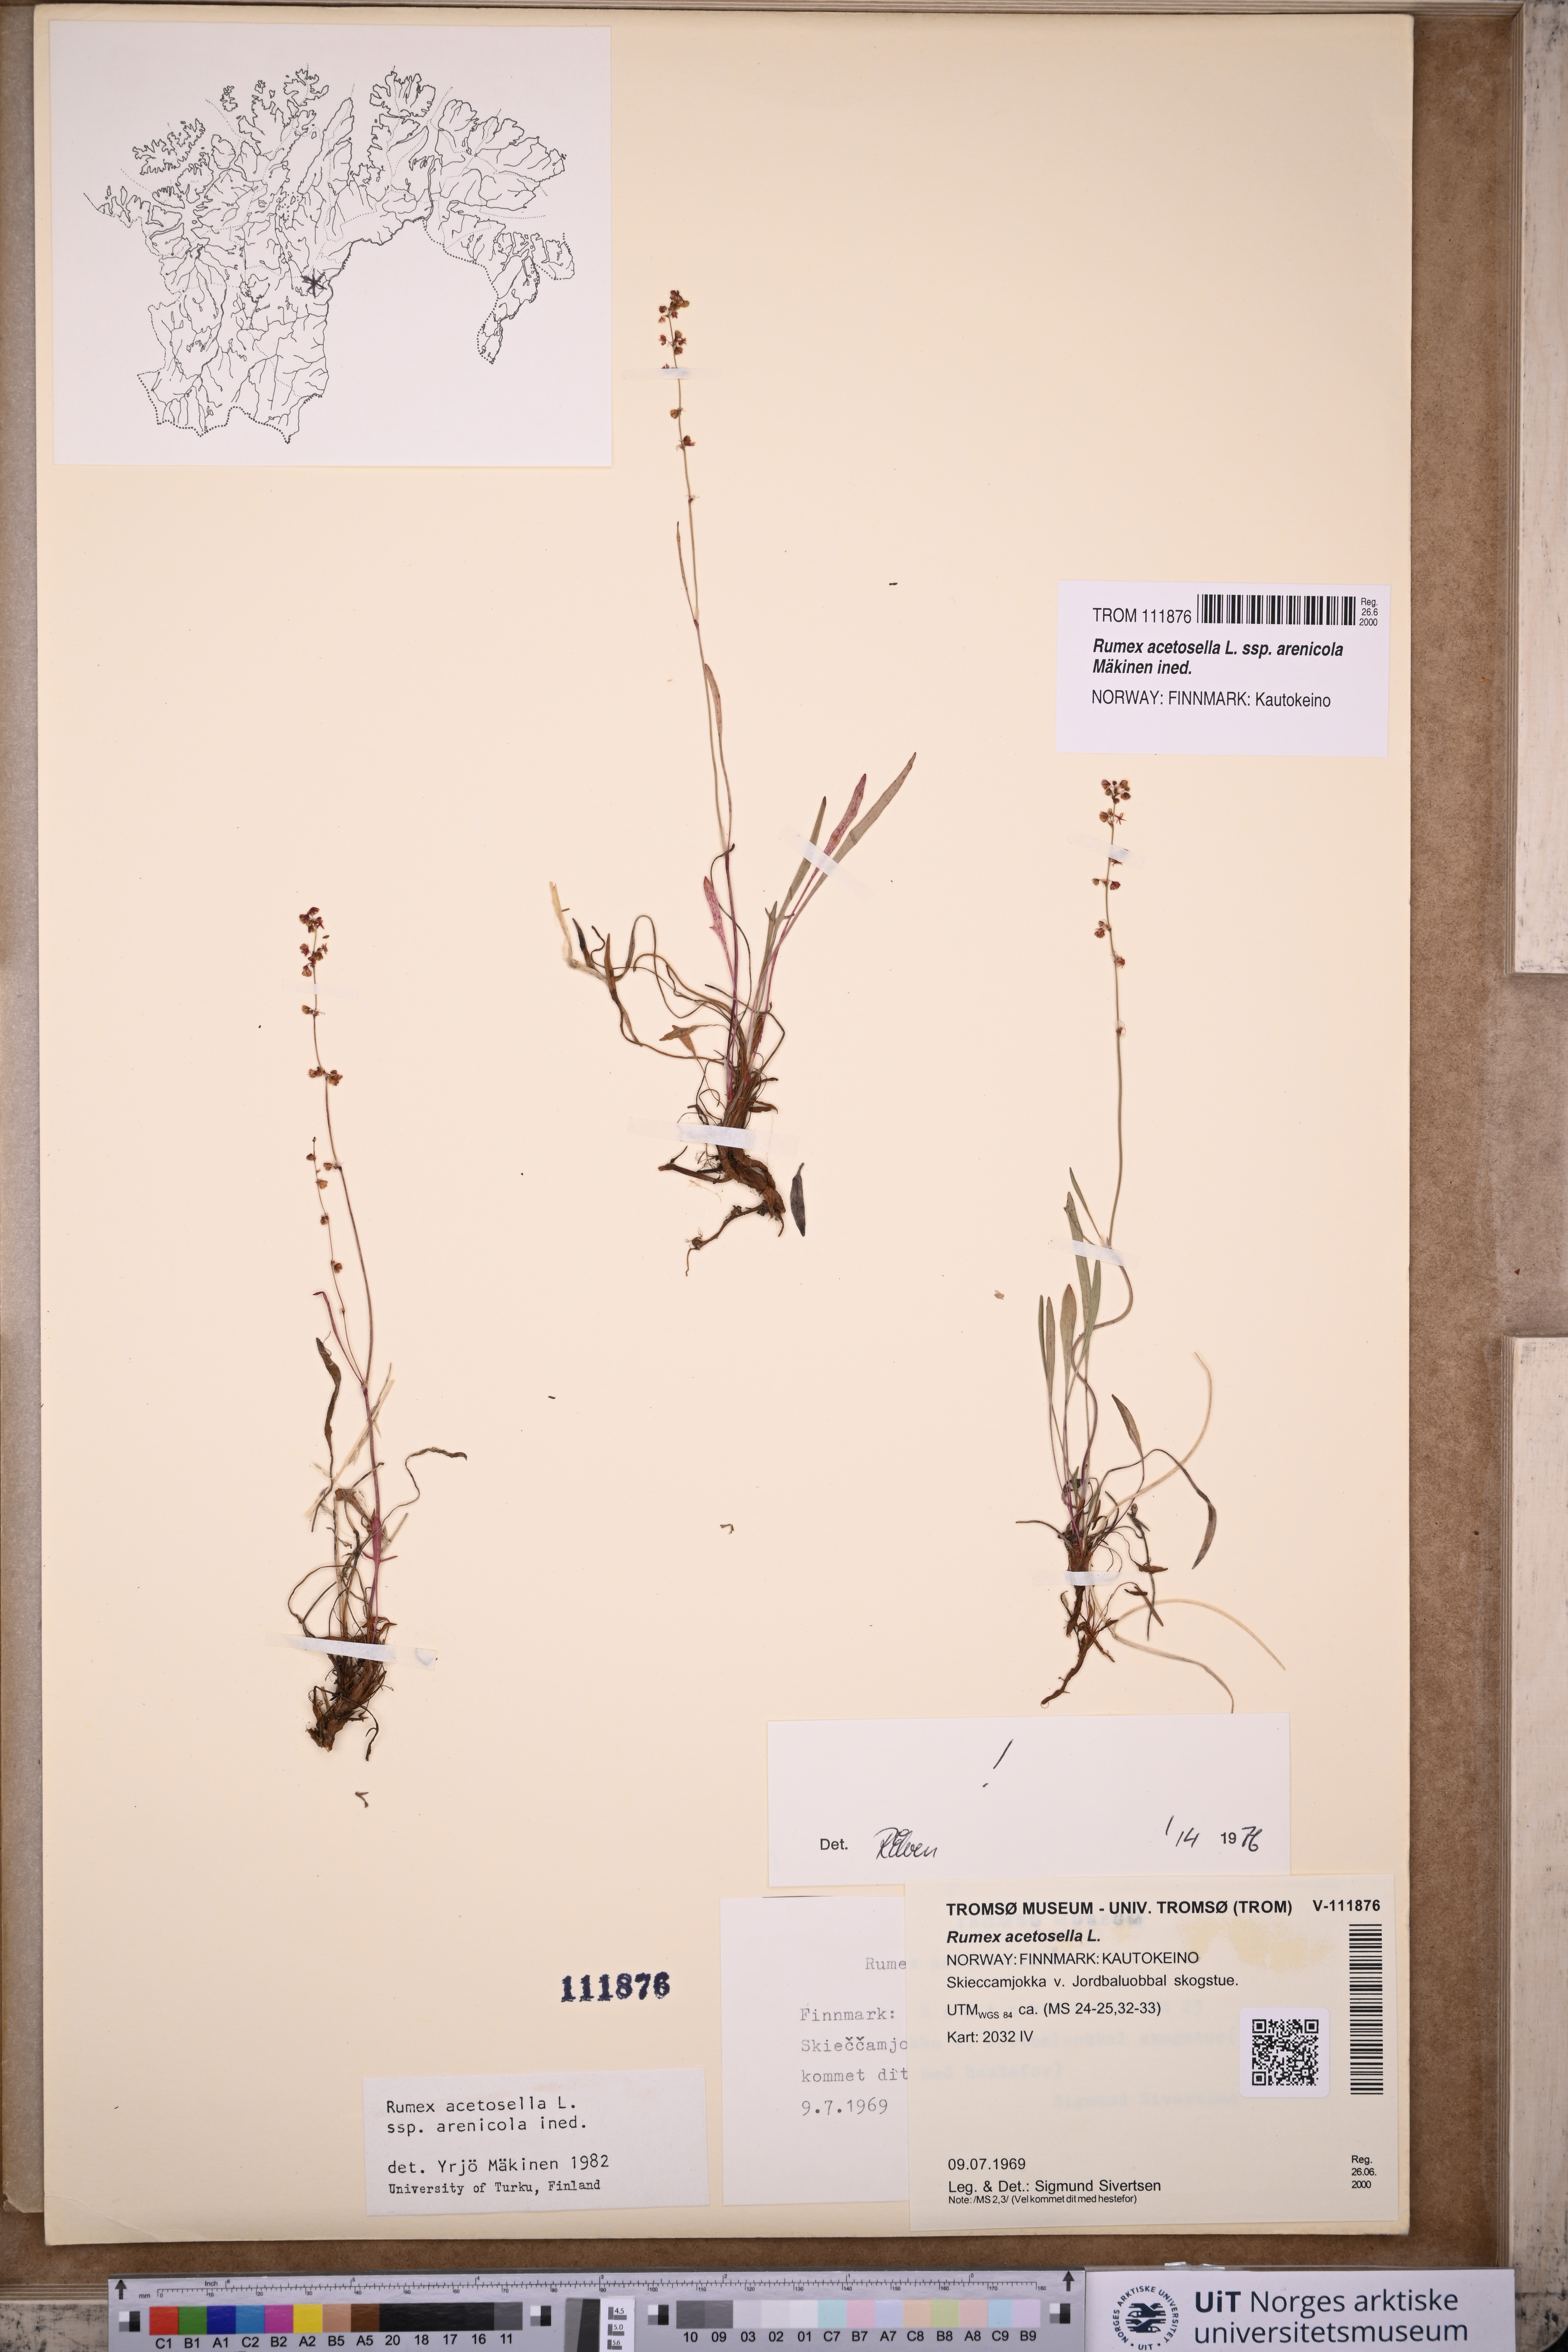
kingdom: Plantae
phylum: Tracheophyta
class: Magnoliopsida
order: Caryophyllales
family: Polygonaceae
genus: Rumex
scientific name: Rumex acetosella
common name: Common sheep sorrel
